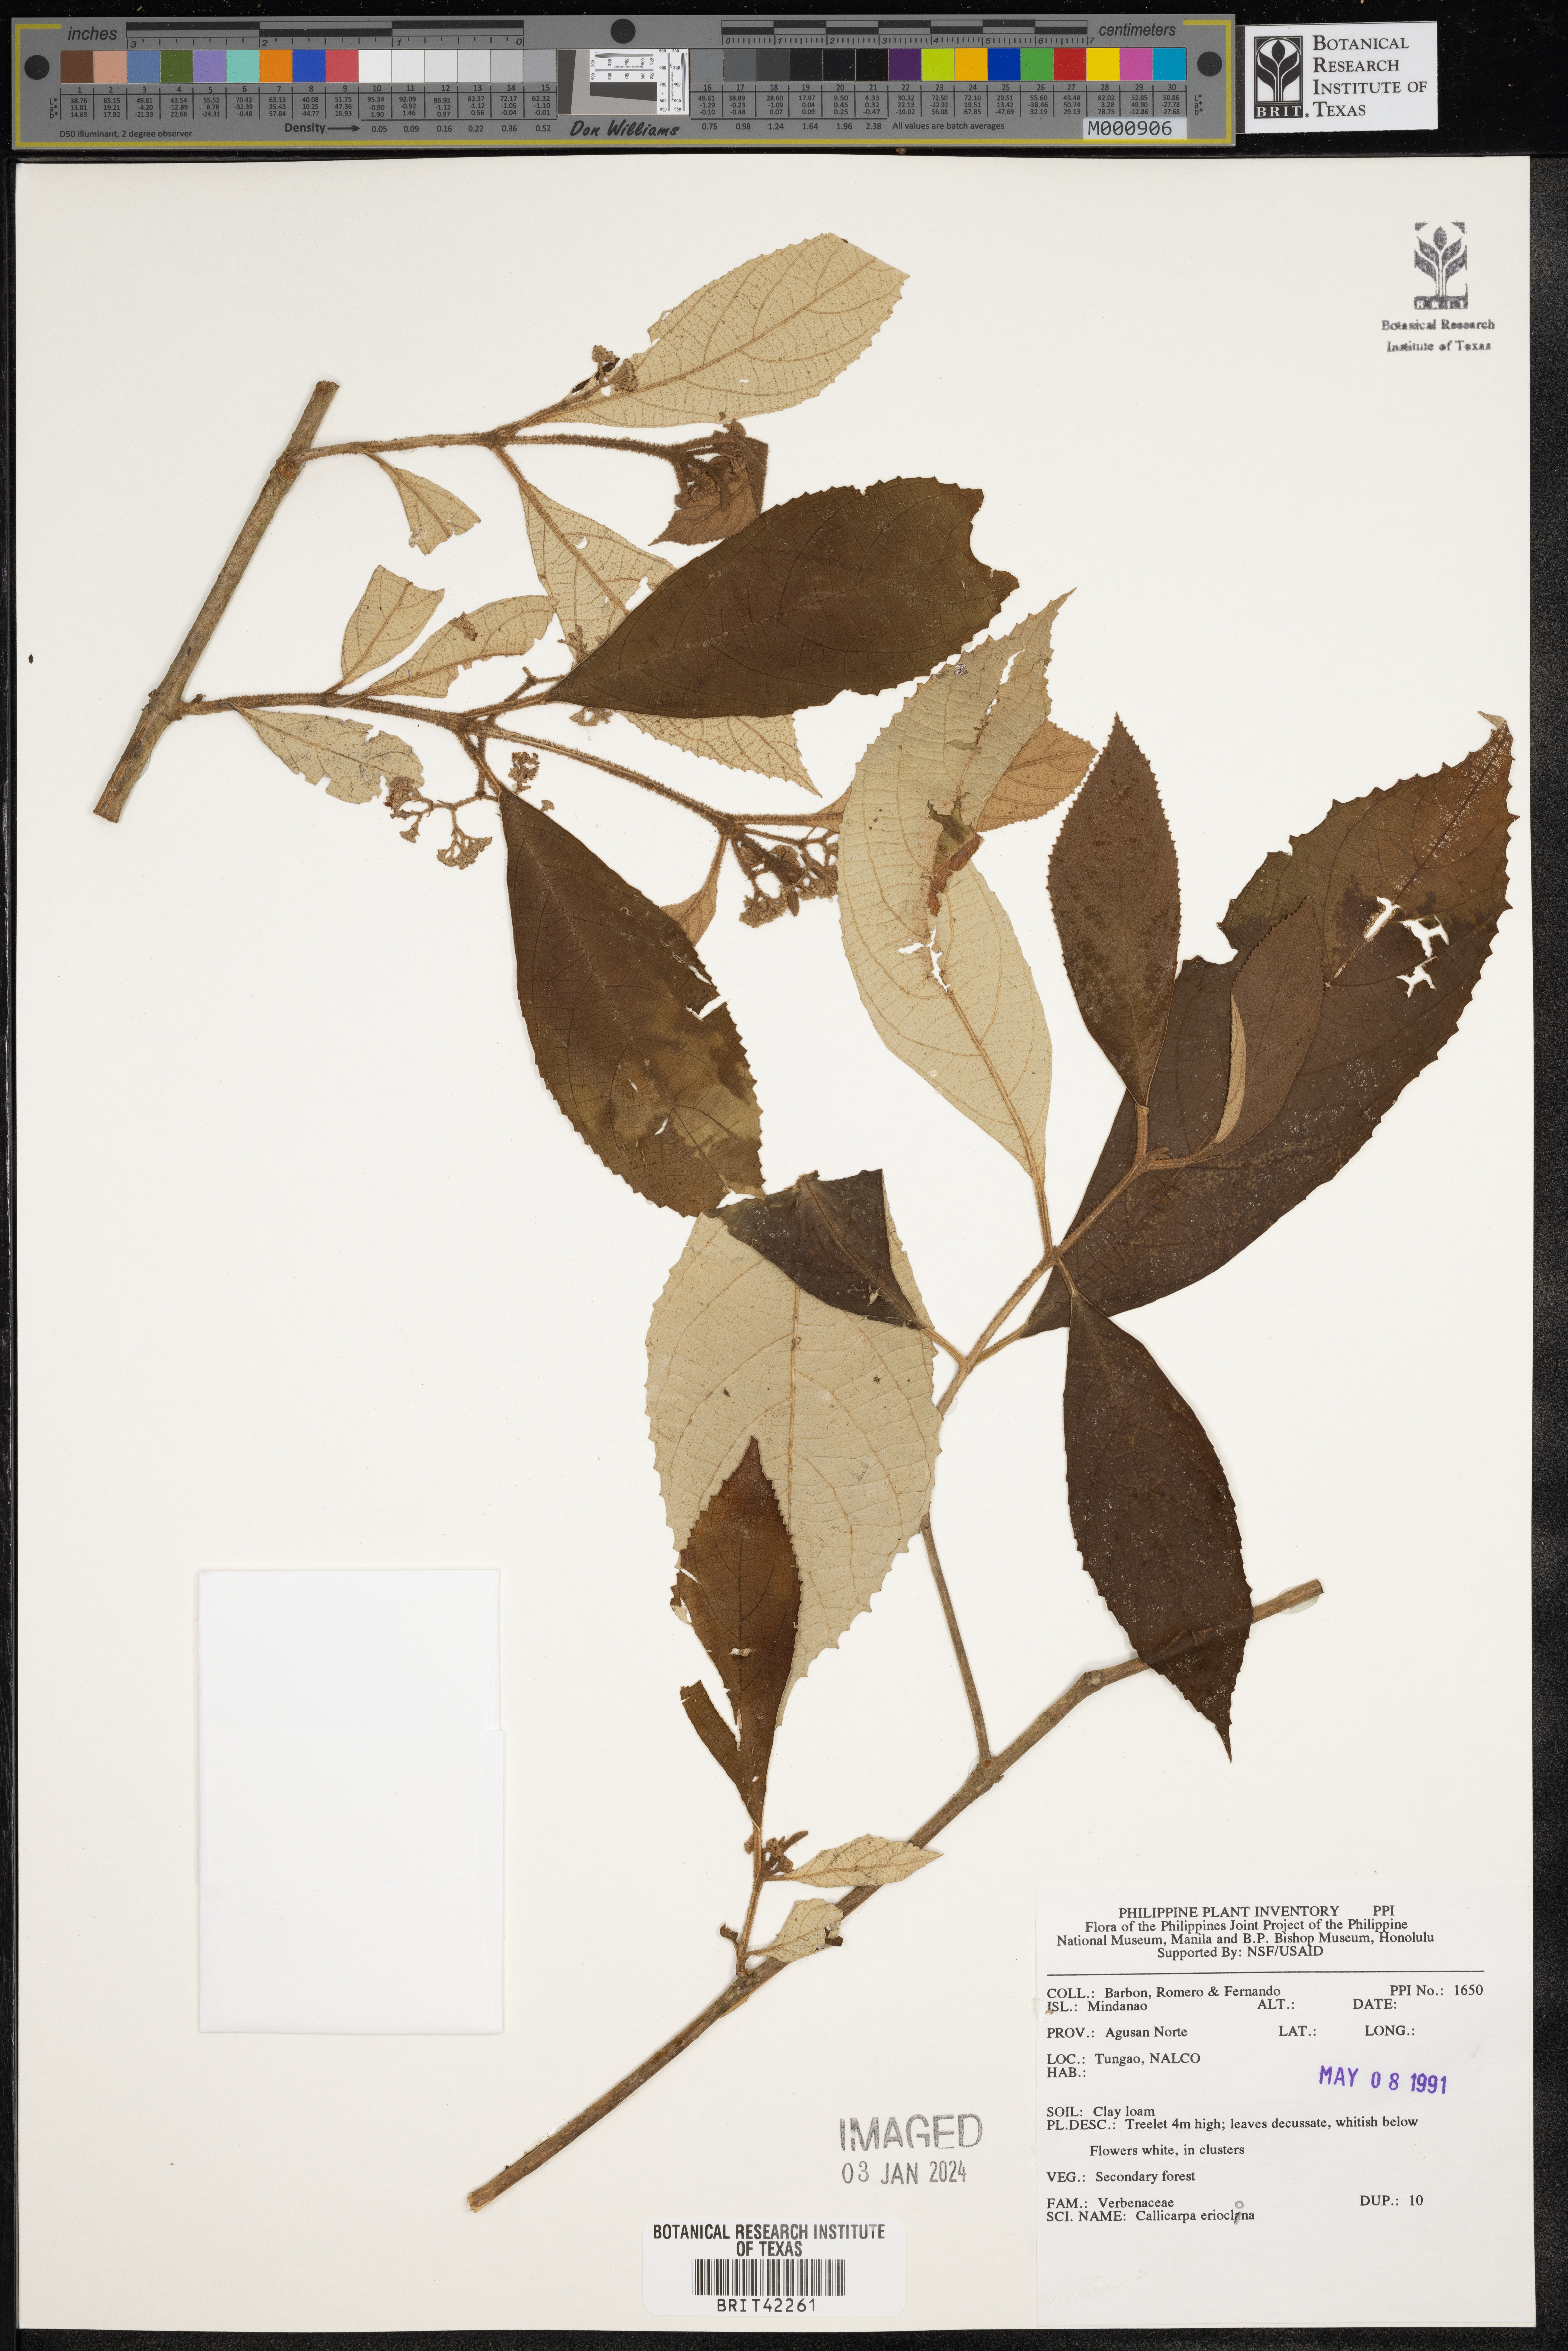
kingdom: Plantae
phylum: Tracheophyta
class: Magnoliopsida
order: Lamiales
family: Lamiaceae
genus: Callicarpa
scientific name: Callicarpa erioclona
